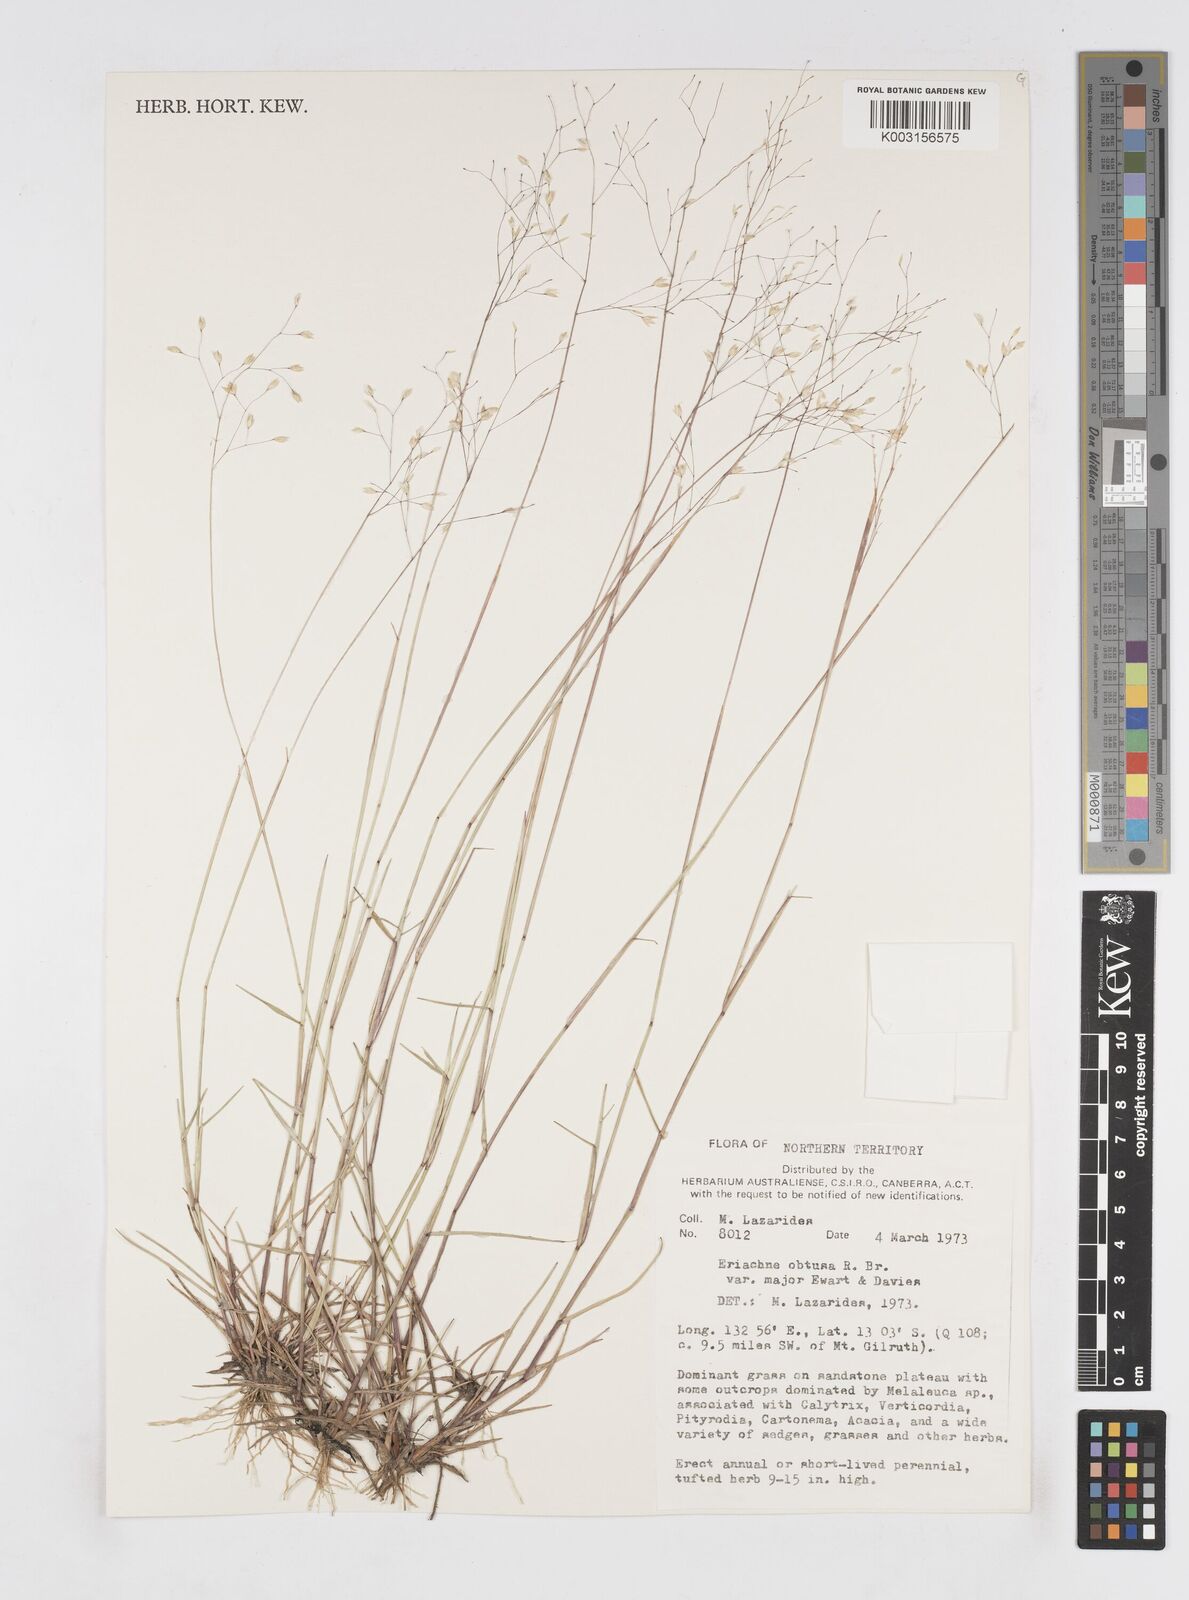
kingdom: Plantae
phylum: Tracheophyta
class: Liliopsida
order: Poales
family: Poaceae
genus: Eriachne
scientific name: Eriachne obtusa
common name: Northern wanderrie grass
